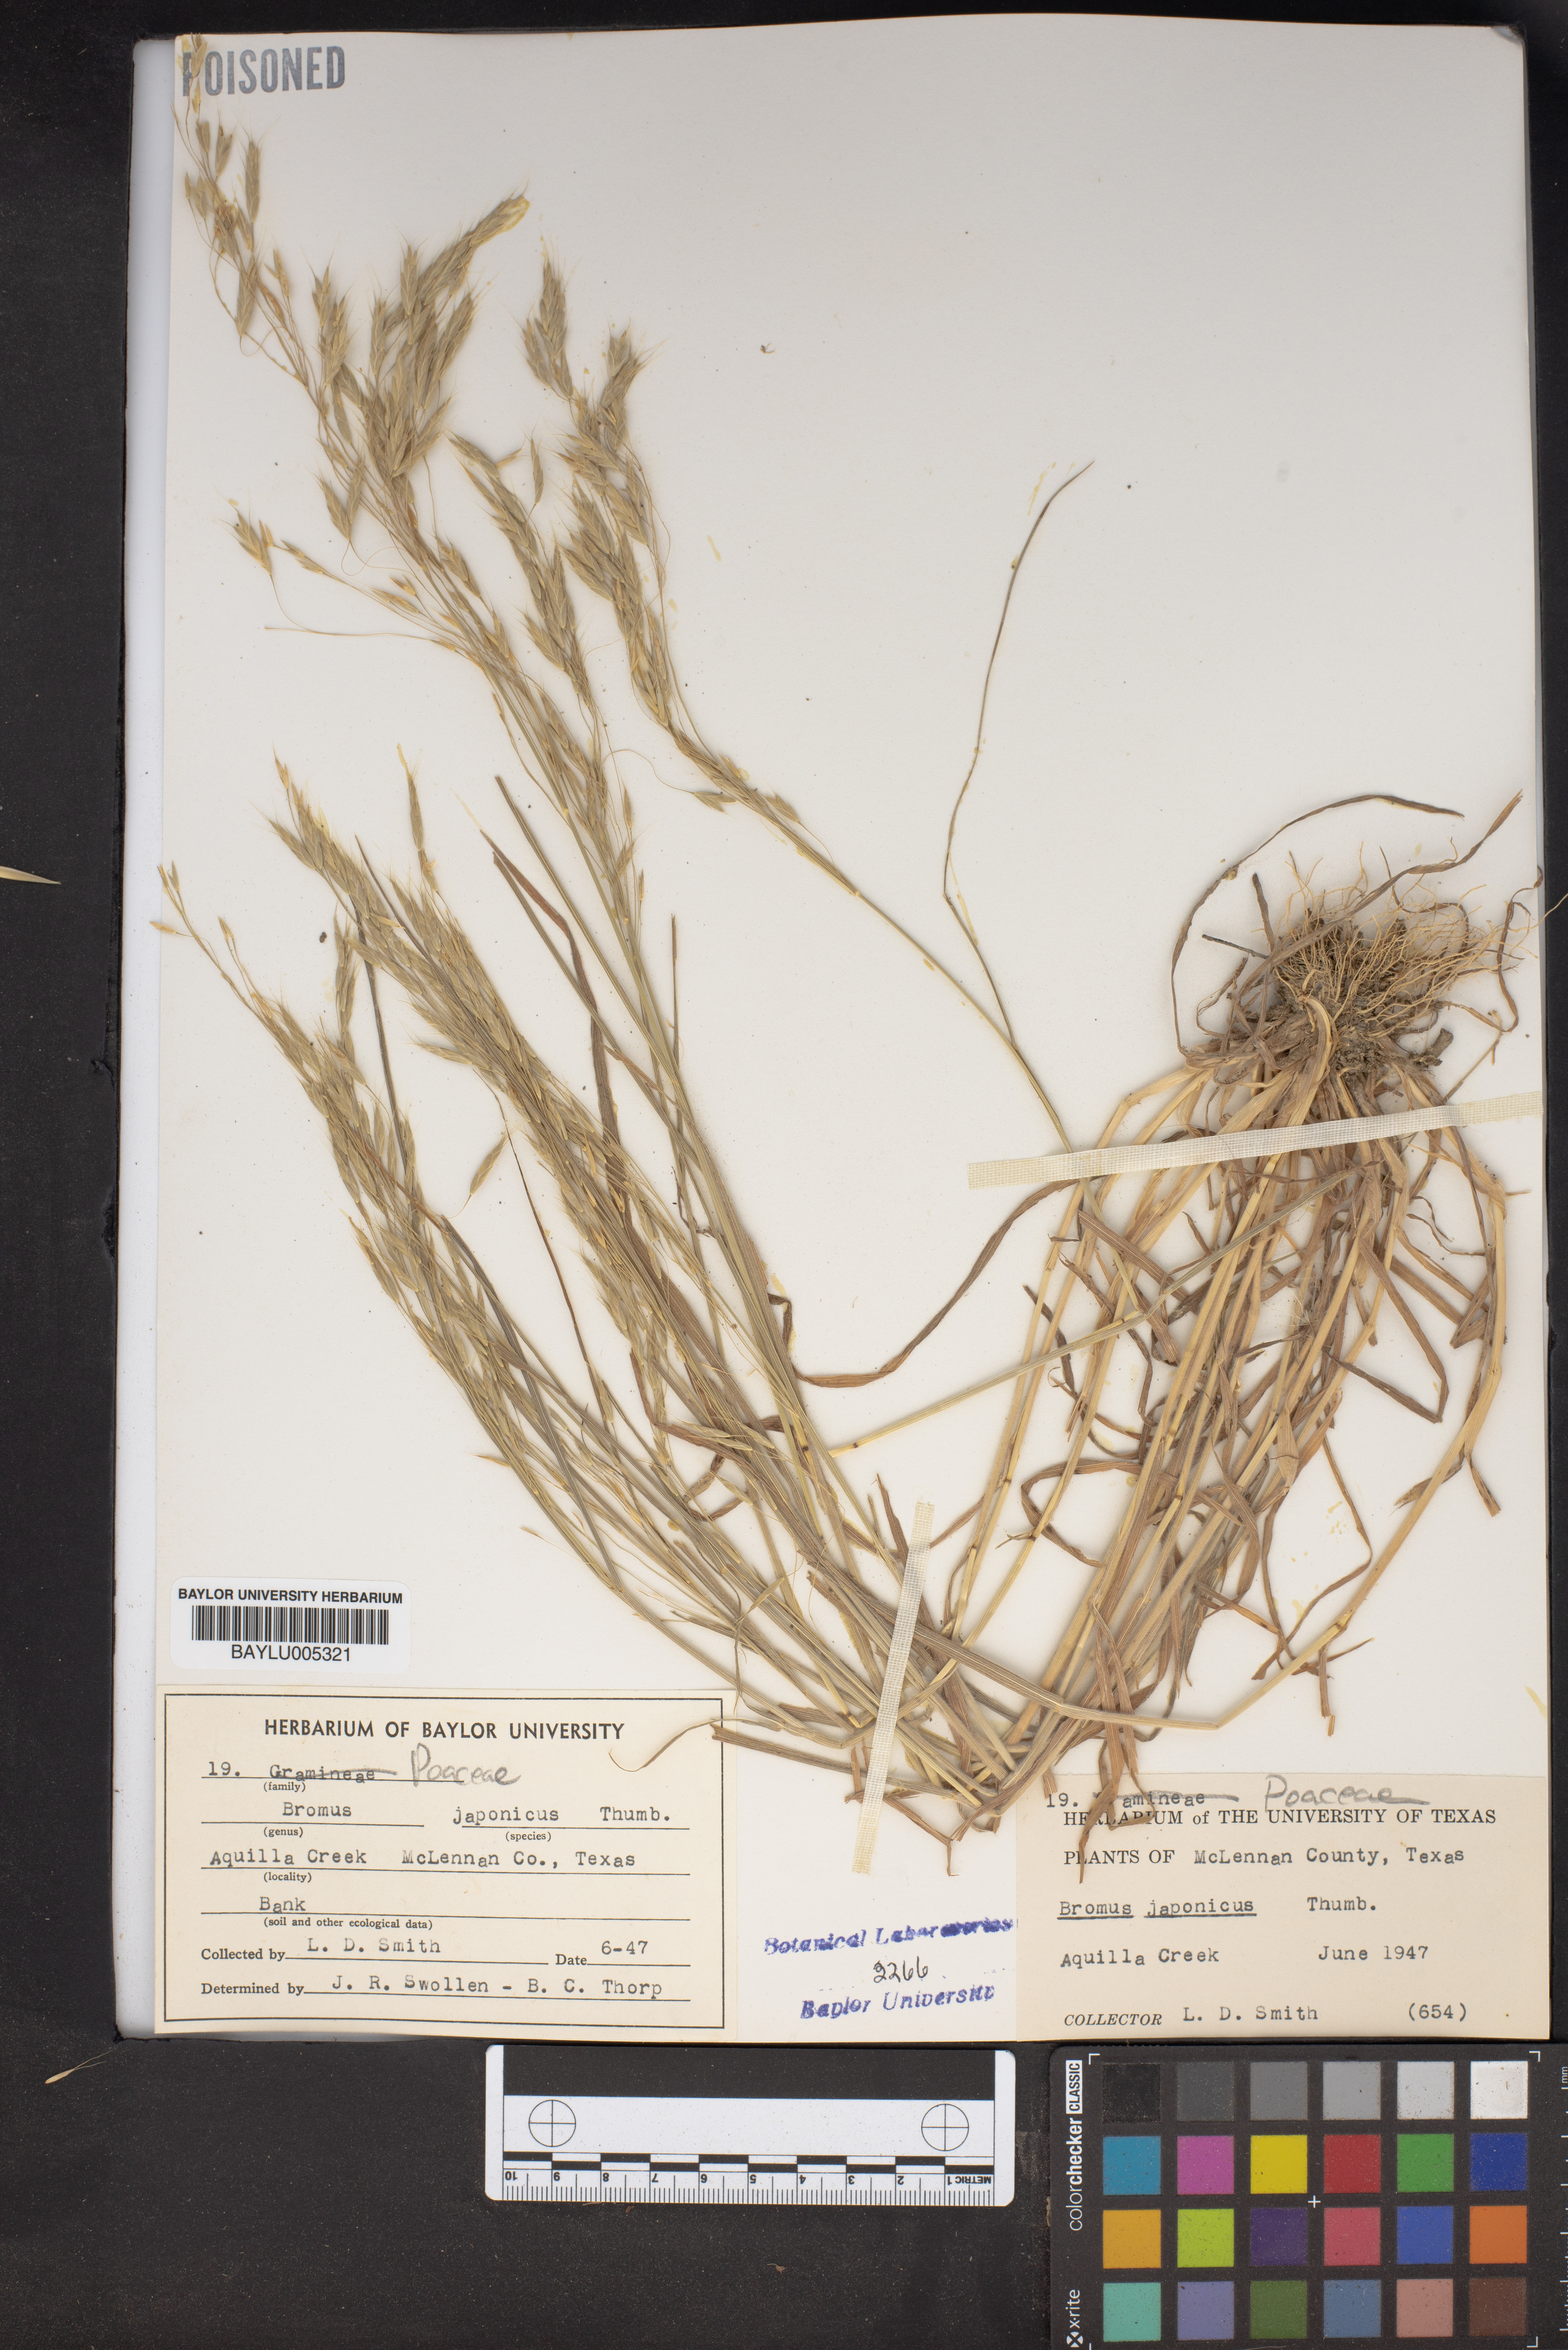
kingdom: Plantae
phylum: Tracheophyta
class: Liliopsida
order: Poales
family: Poaceae
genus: Bromus
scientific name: Bromus japonicus
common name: Japanese brome
